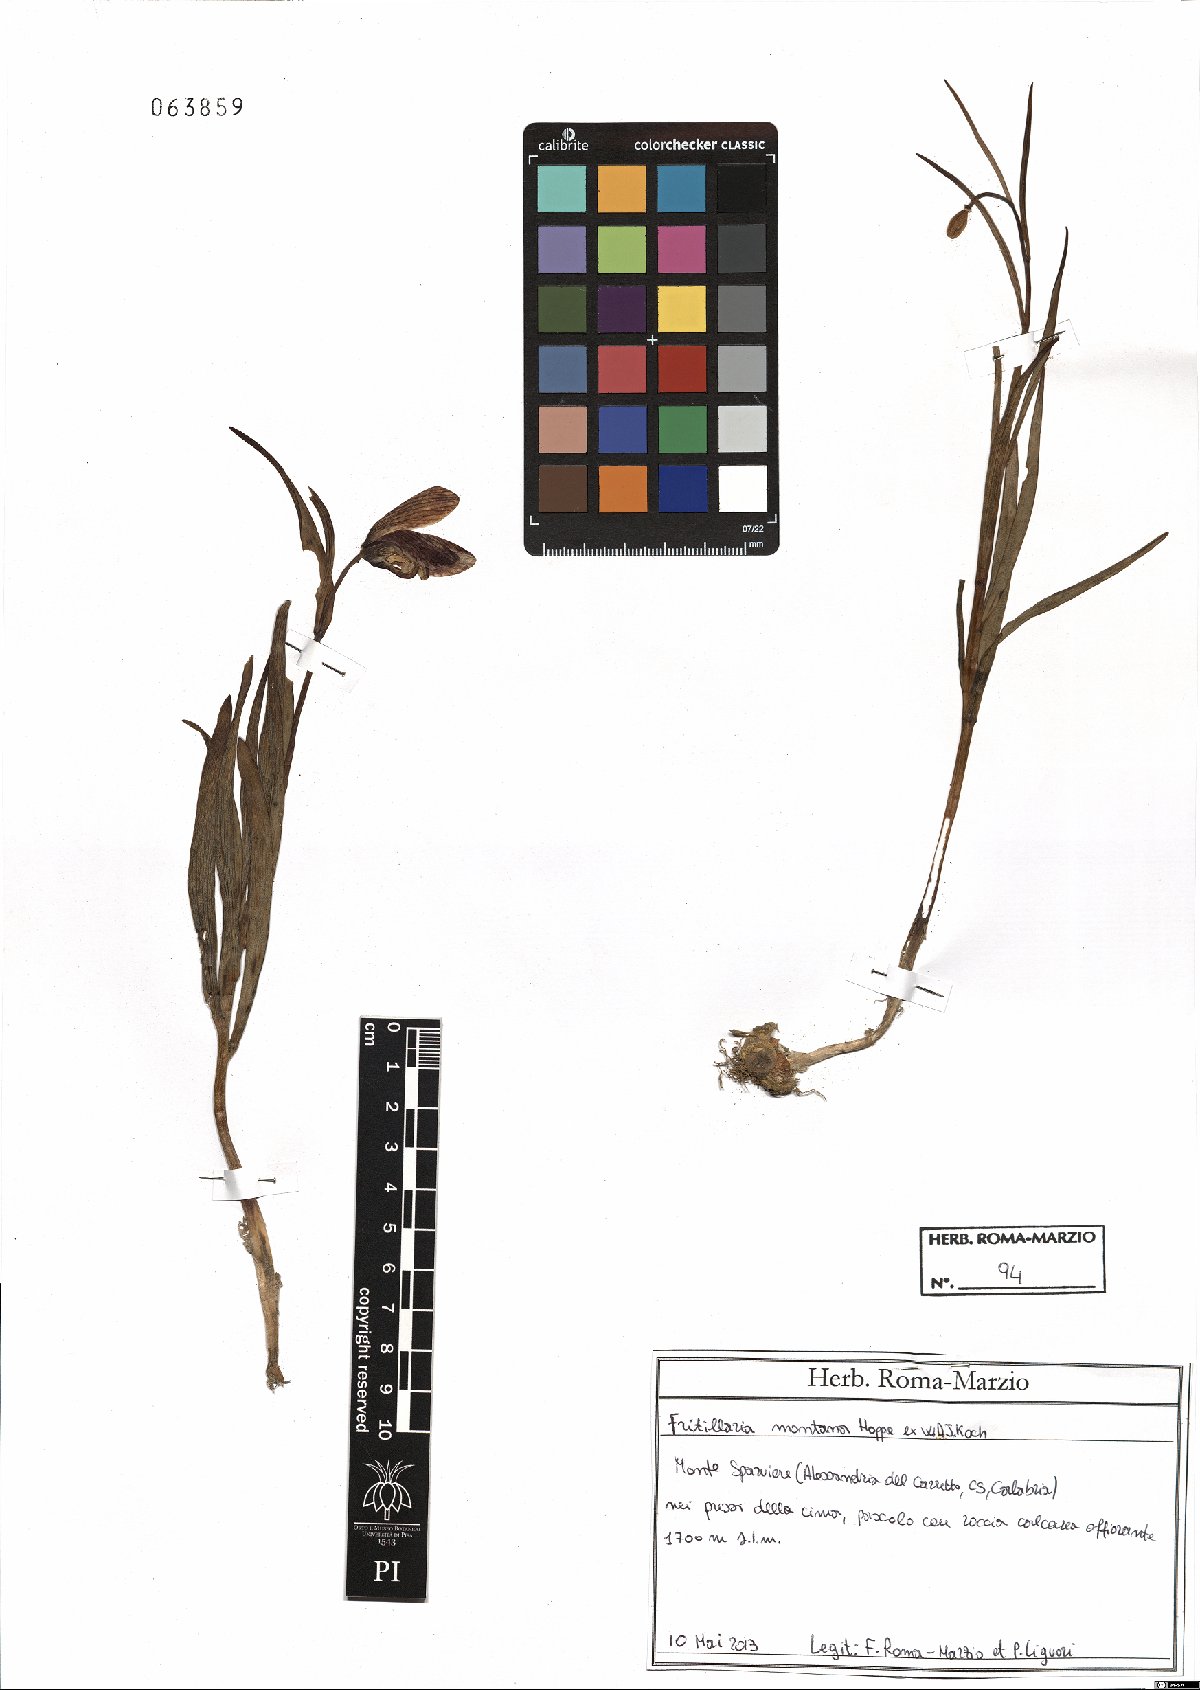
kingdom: Plantae
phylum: Tracheophyta
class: Liliopsida
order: Liliales
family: Liliaceae
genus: Fritillaria
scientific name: Fritillaria montana
